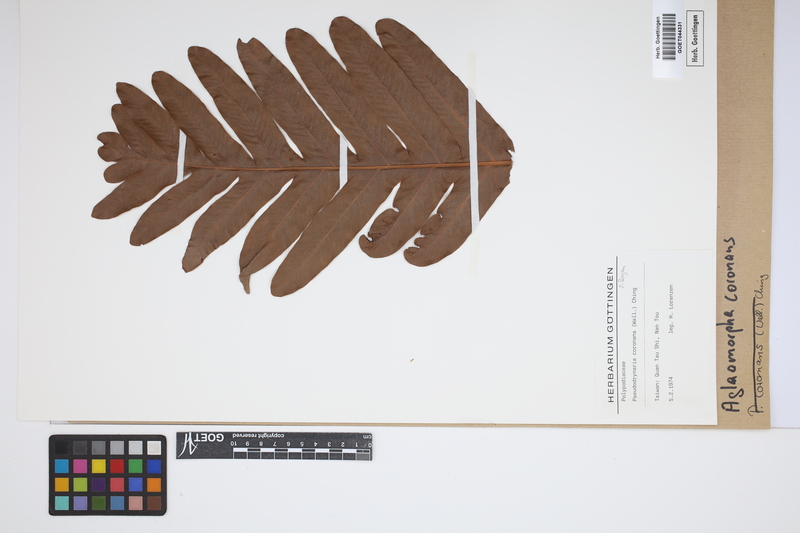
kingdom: Plantae
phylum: Tracheophyta
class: Polypodiopsida
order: Polypodiales
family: Polypodiaceae
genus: Drynaria
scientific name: Drynaria coronans
